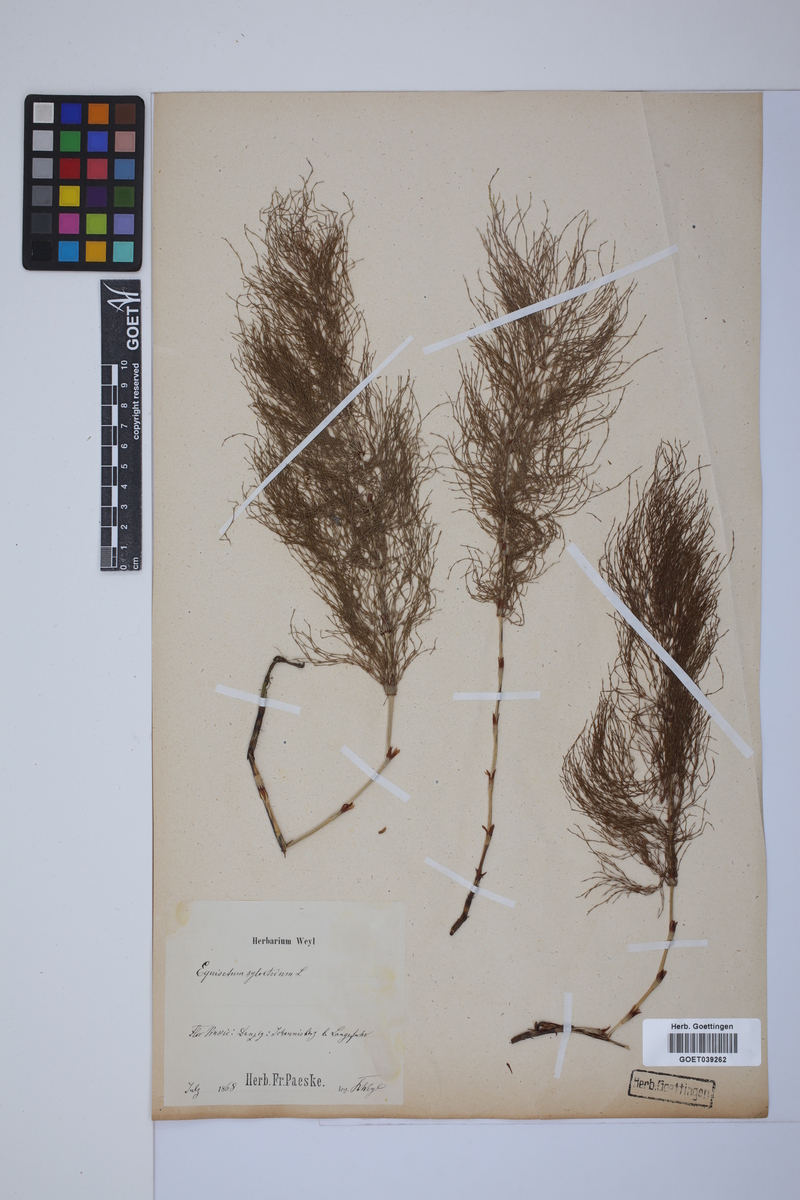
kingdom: Plantae
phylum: Tracheophyta
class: Polypodiopsida
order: Equisetales
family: Equisetaceae
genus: Equisetum
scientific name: Equisetum sylvaticum
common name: Wood horsetail
